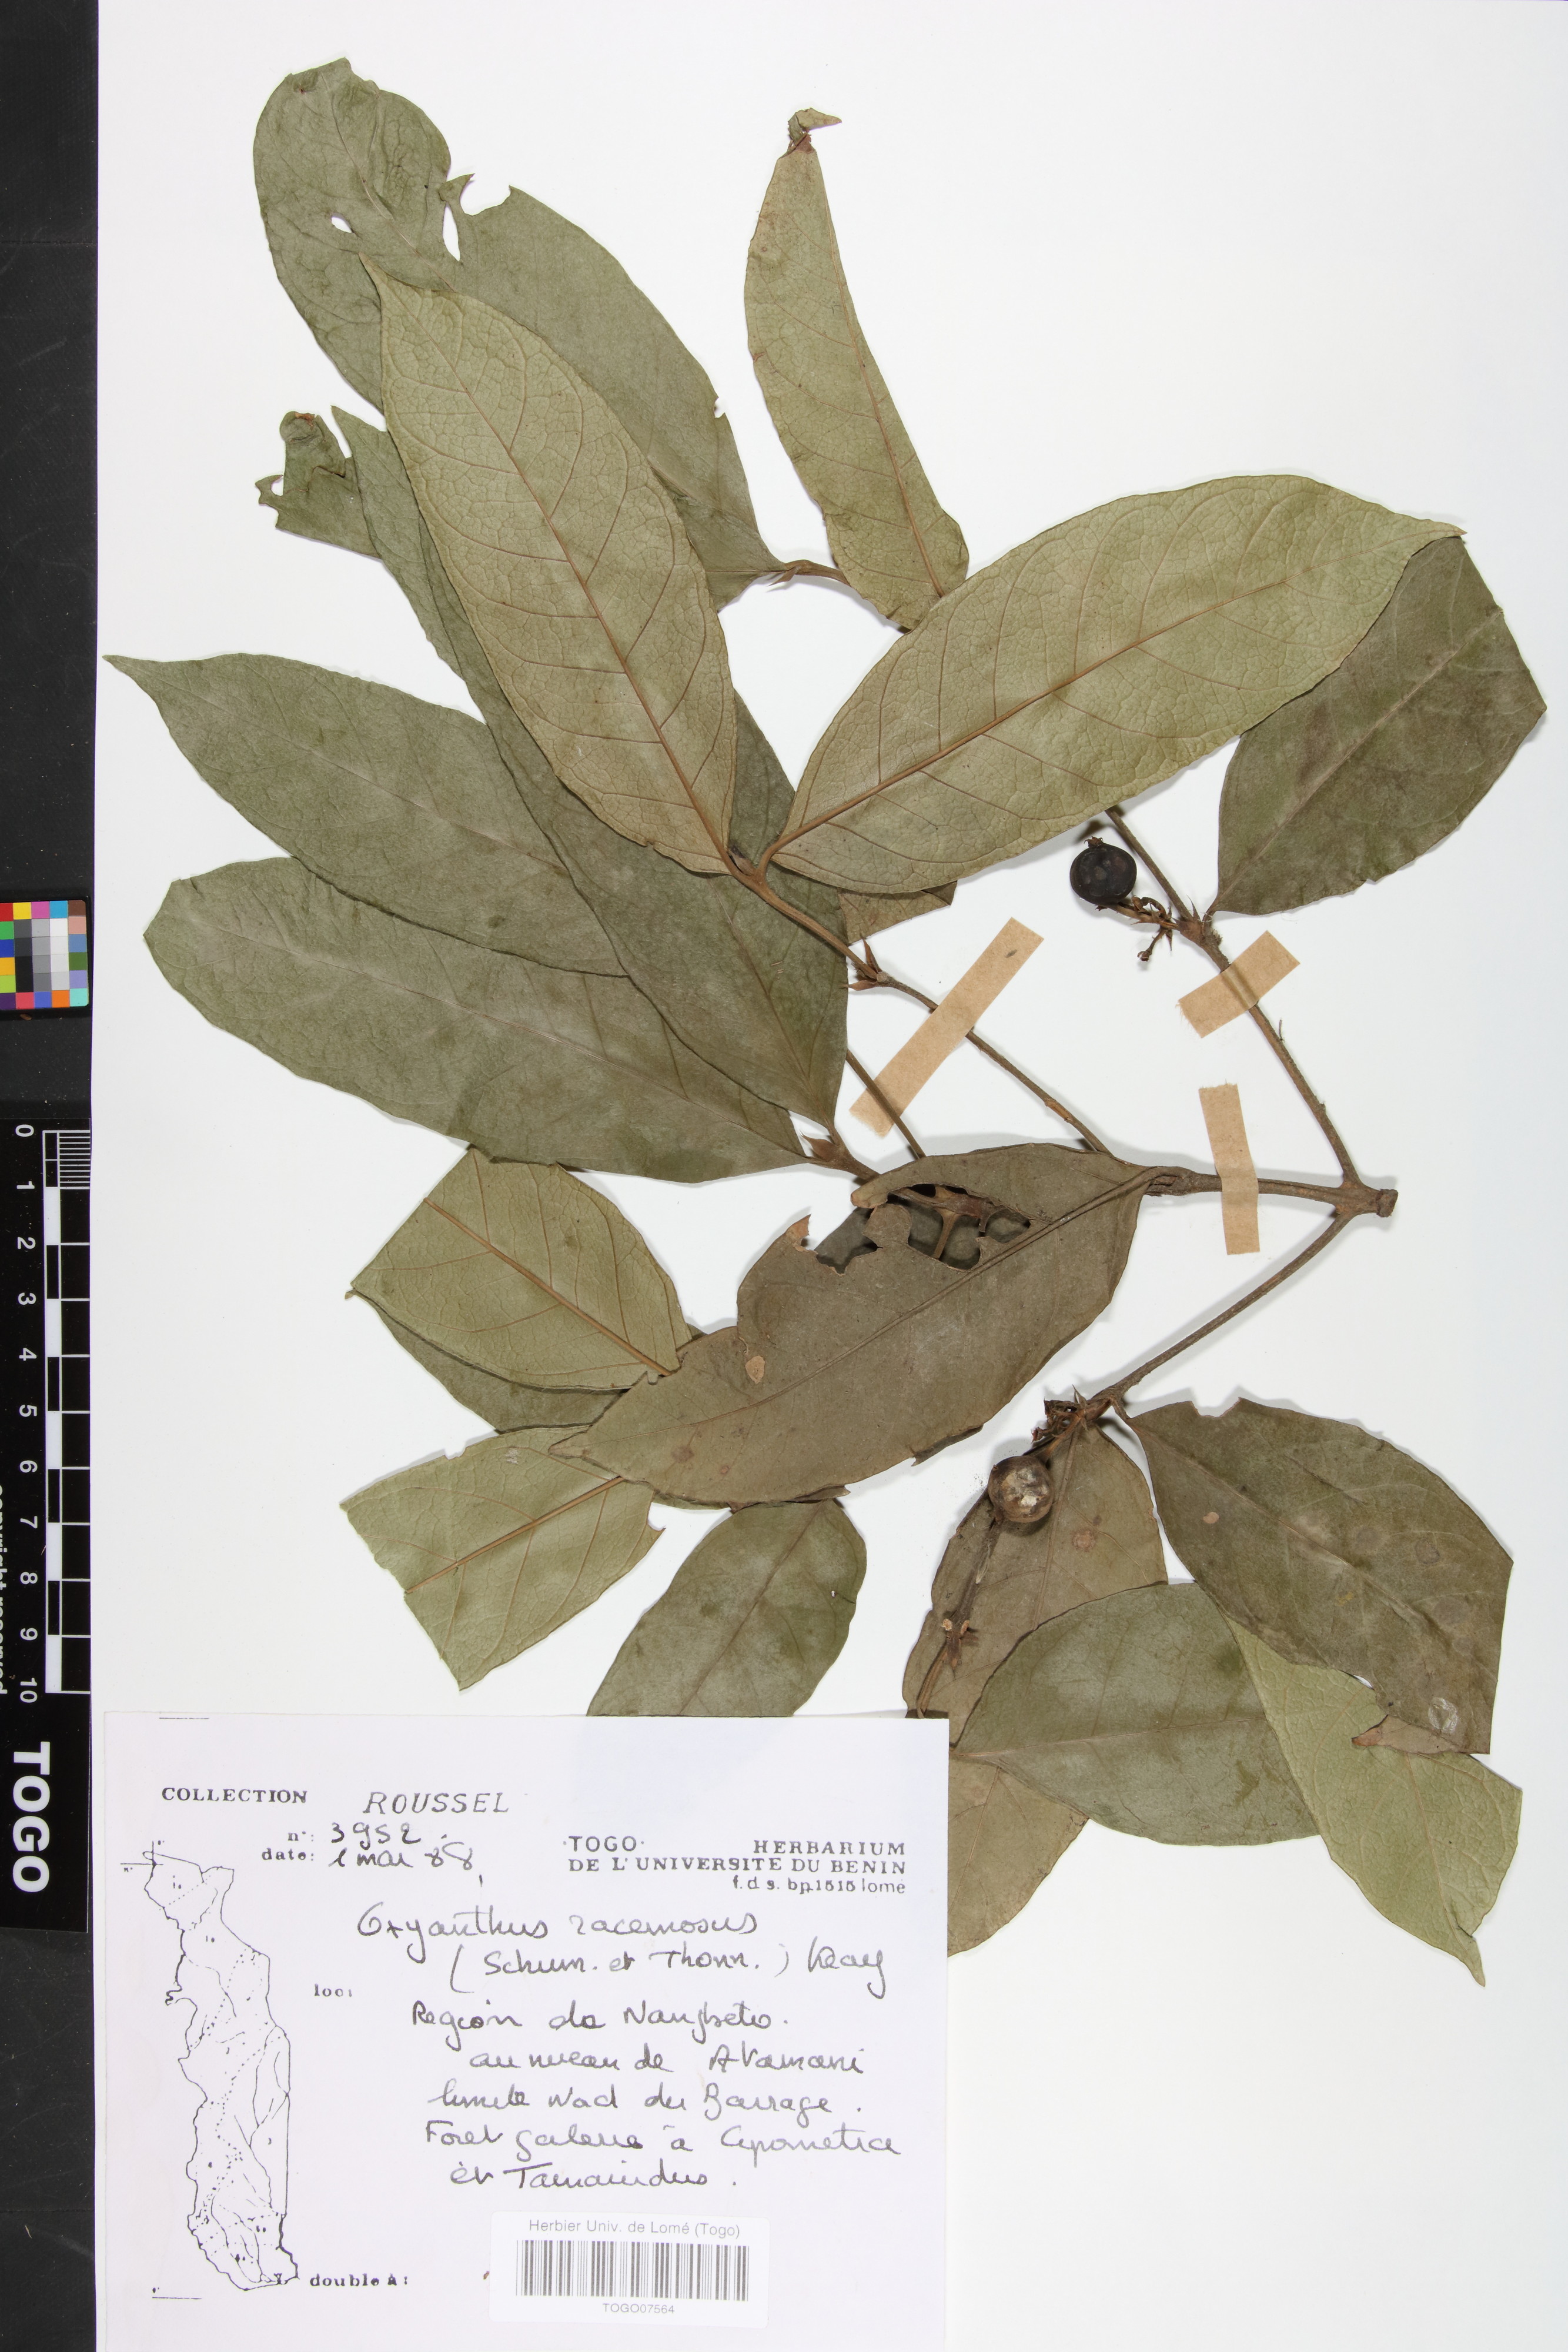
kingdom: Plantae
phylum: Tracheophyta
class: Magnoliopsida
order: Gentianales
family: Rubiaceae
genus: Oxyanthus
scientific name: Oxyanthus racemosus
